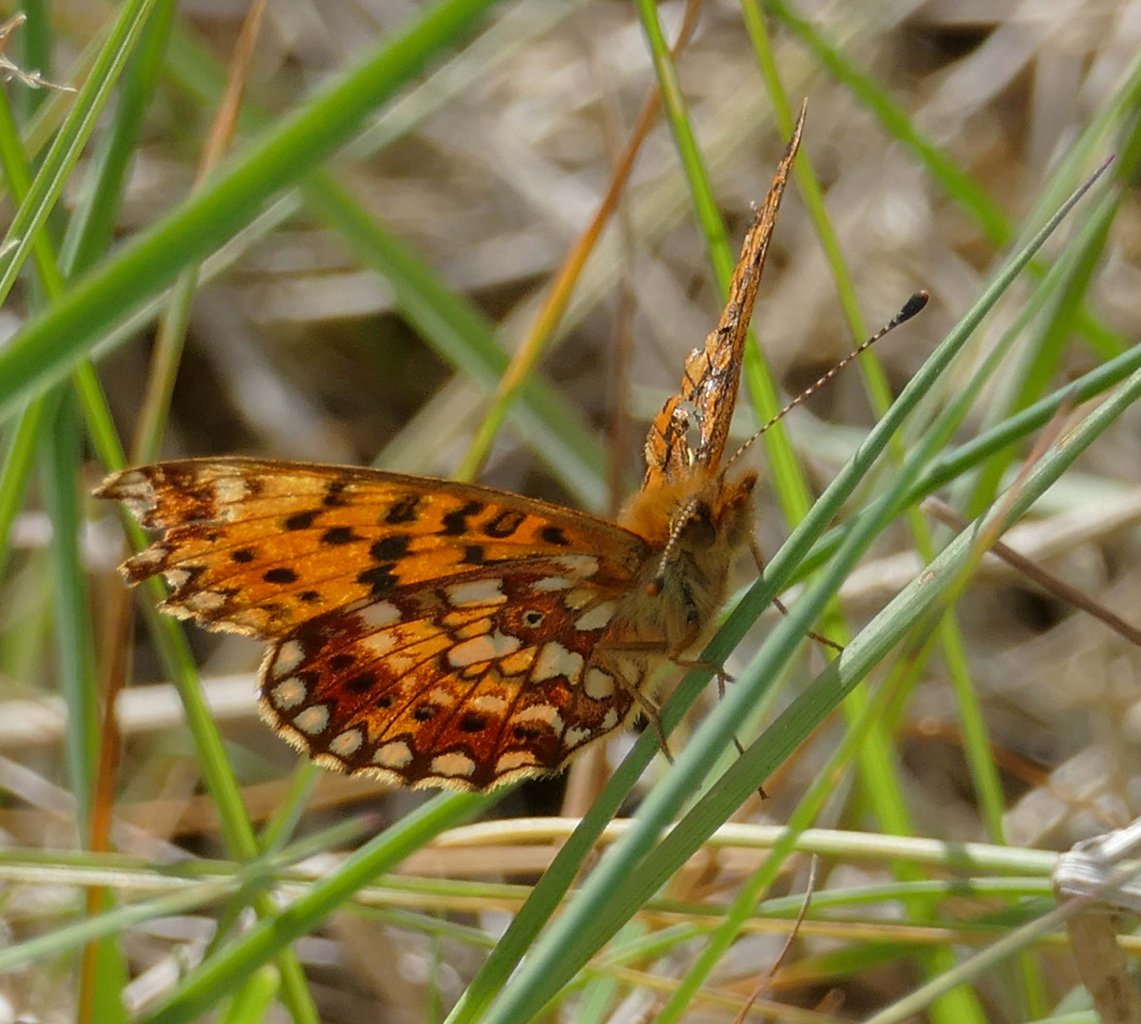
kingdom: Animalia
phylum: Arthropoda
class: Insecta
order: Lepidoptera
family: Nymphalidae
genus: Boloria
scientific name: Boloria selene
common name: Silver-bordered Fritillary
